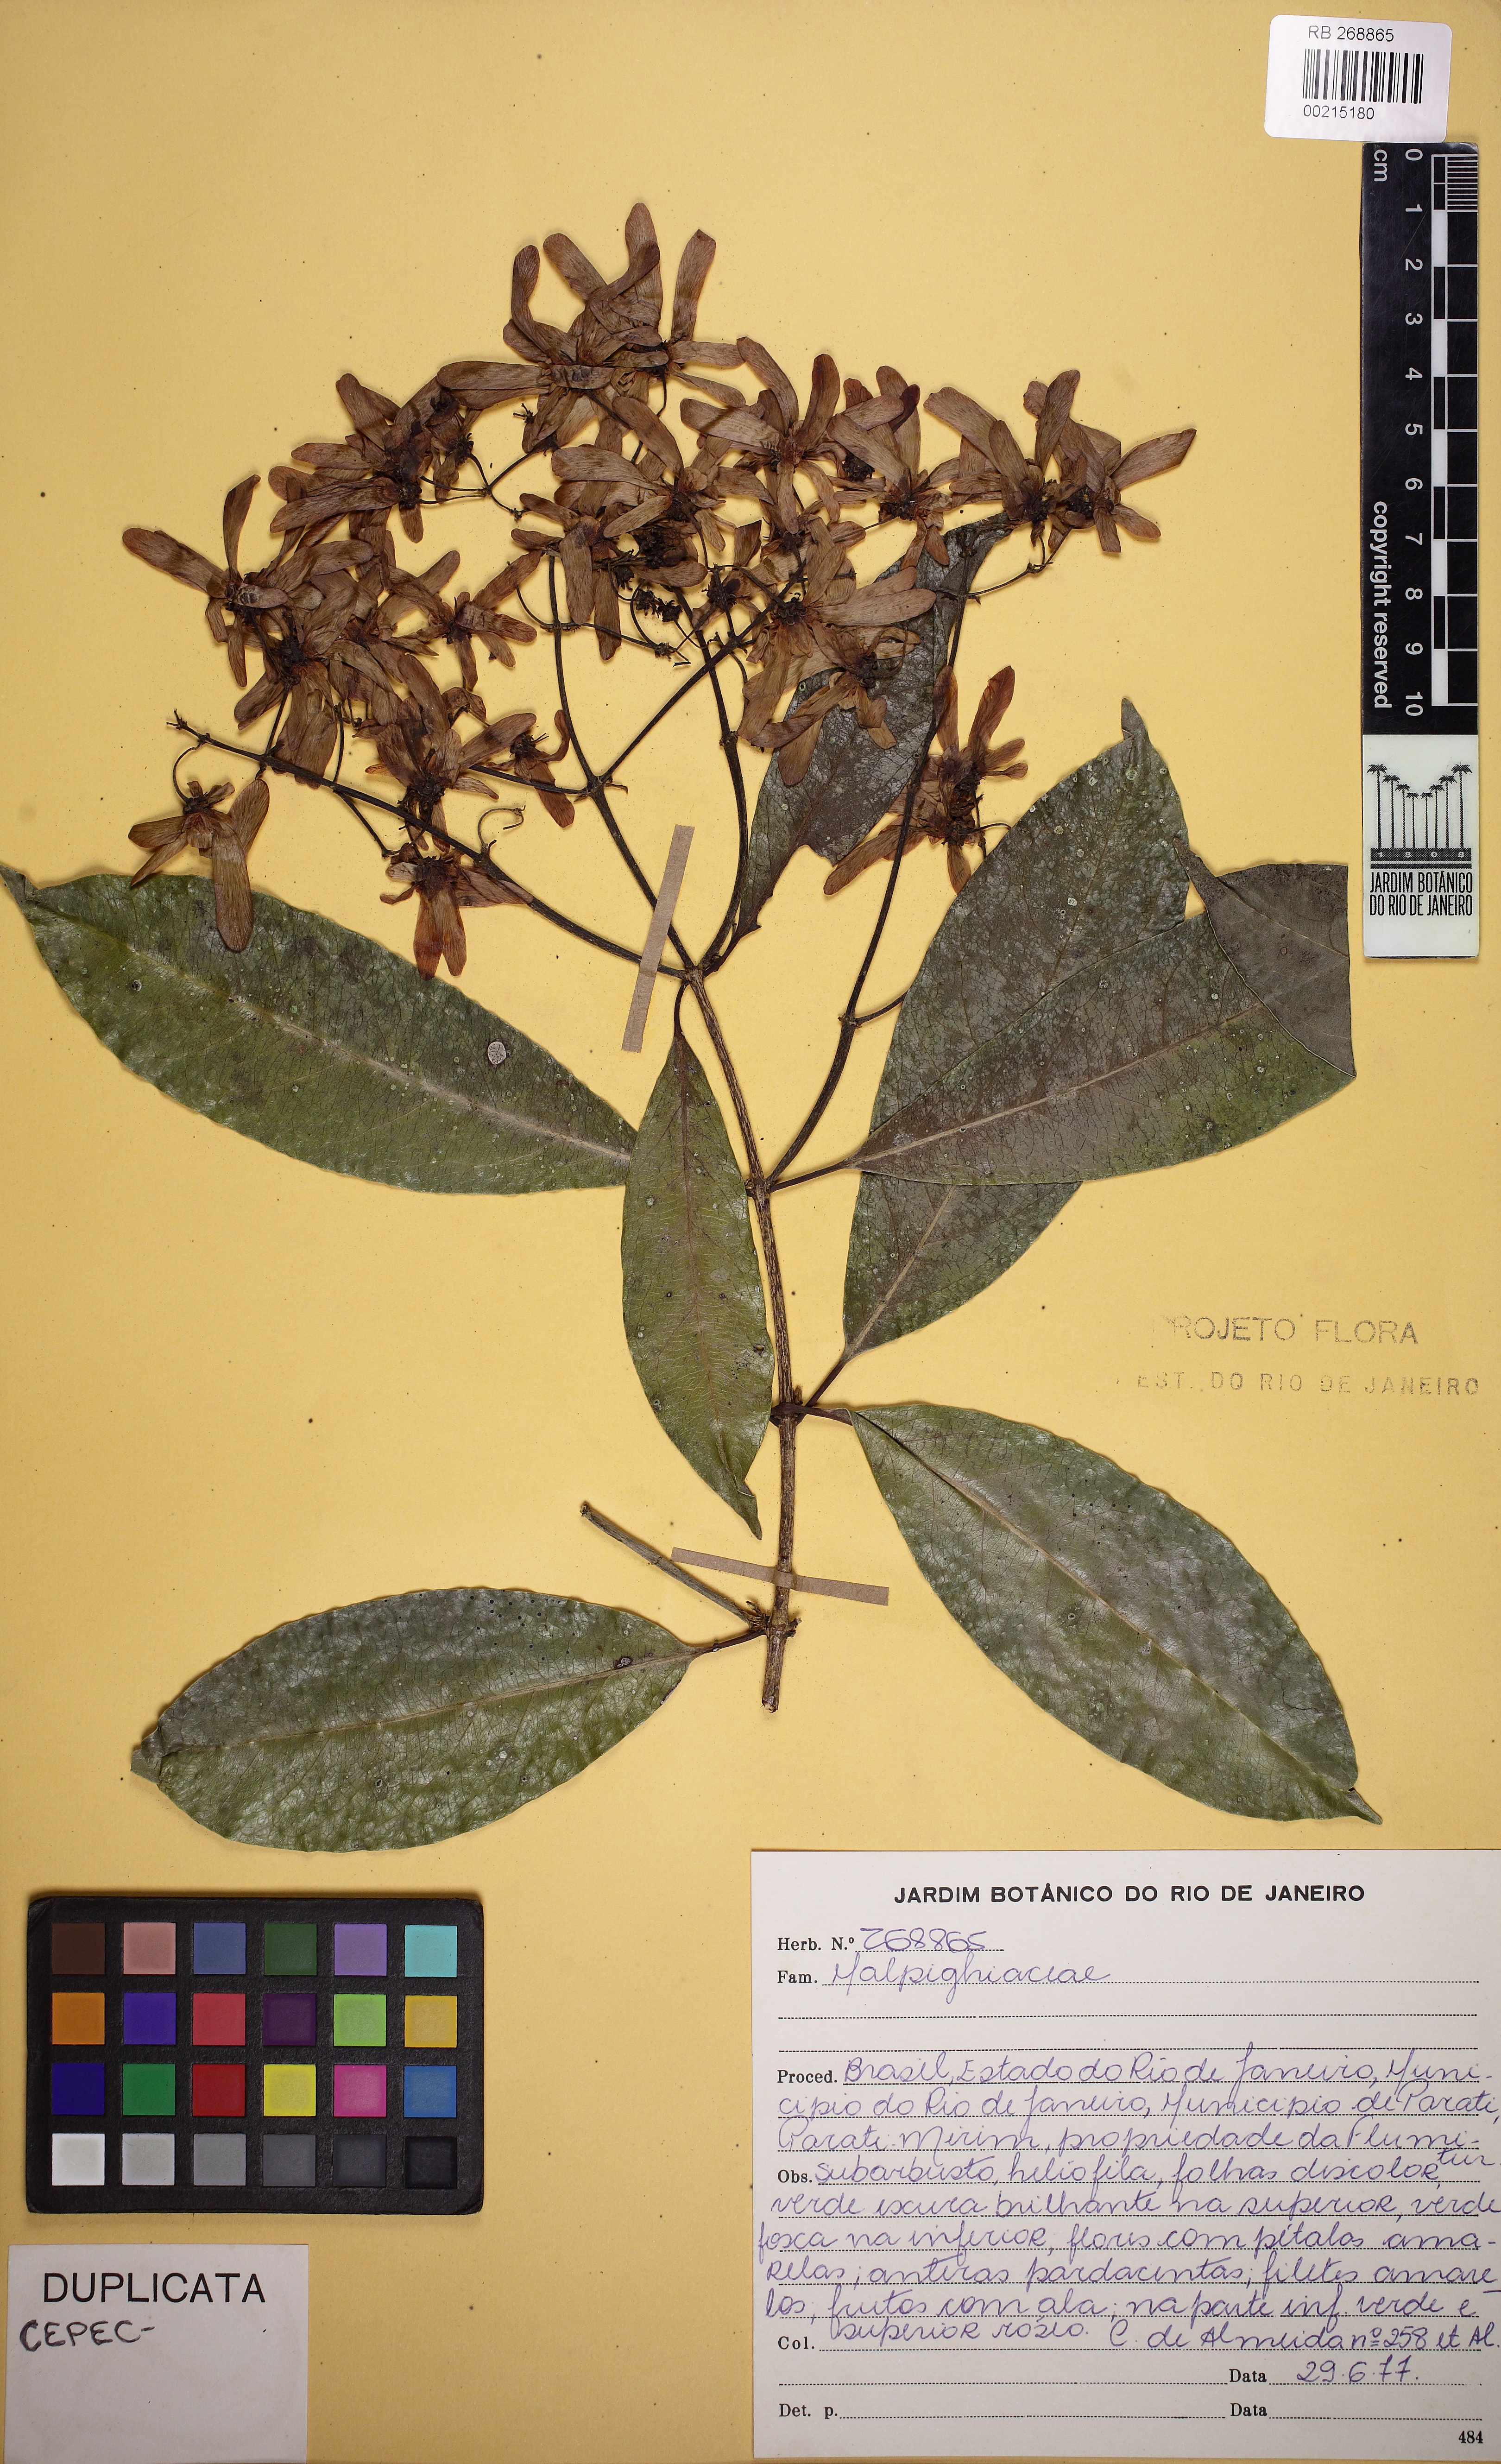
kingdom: Plantae
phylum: Tracheophyta
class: Magnoliopsida
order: Malpighiales
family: Malpighiaceae
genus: Tetrapterys
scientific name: Tetrapterys mucronata
